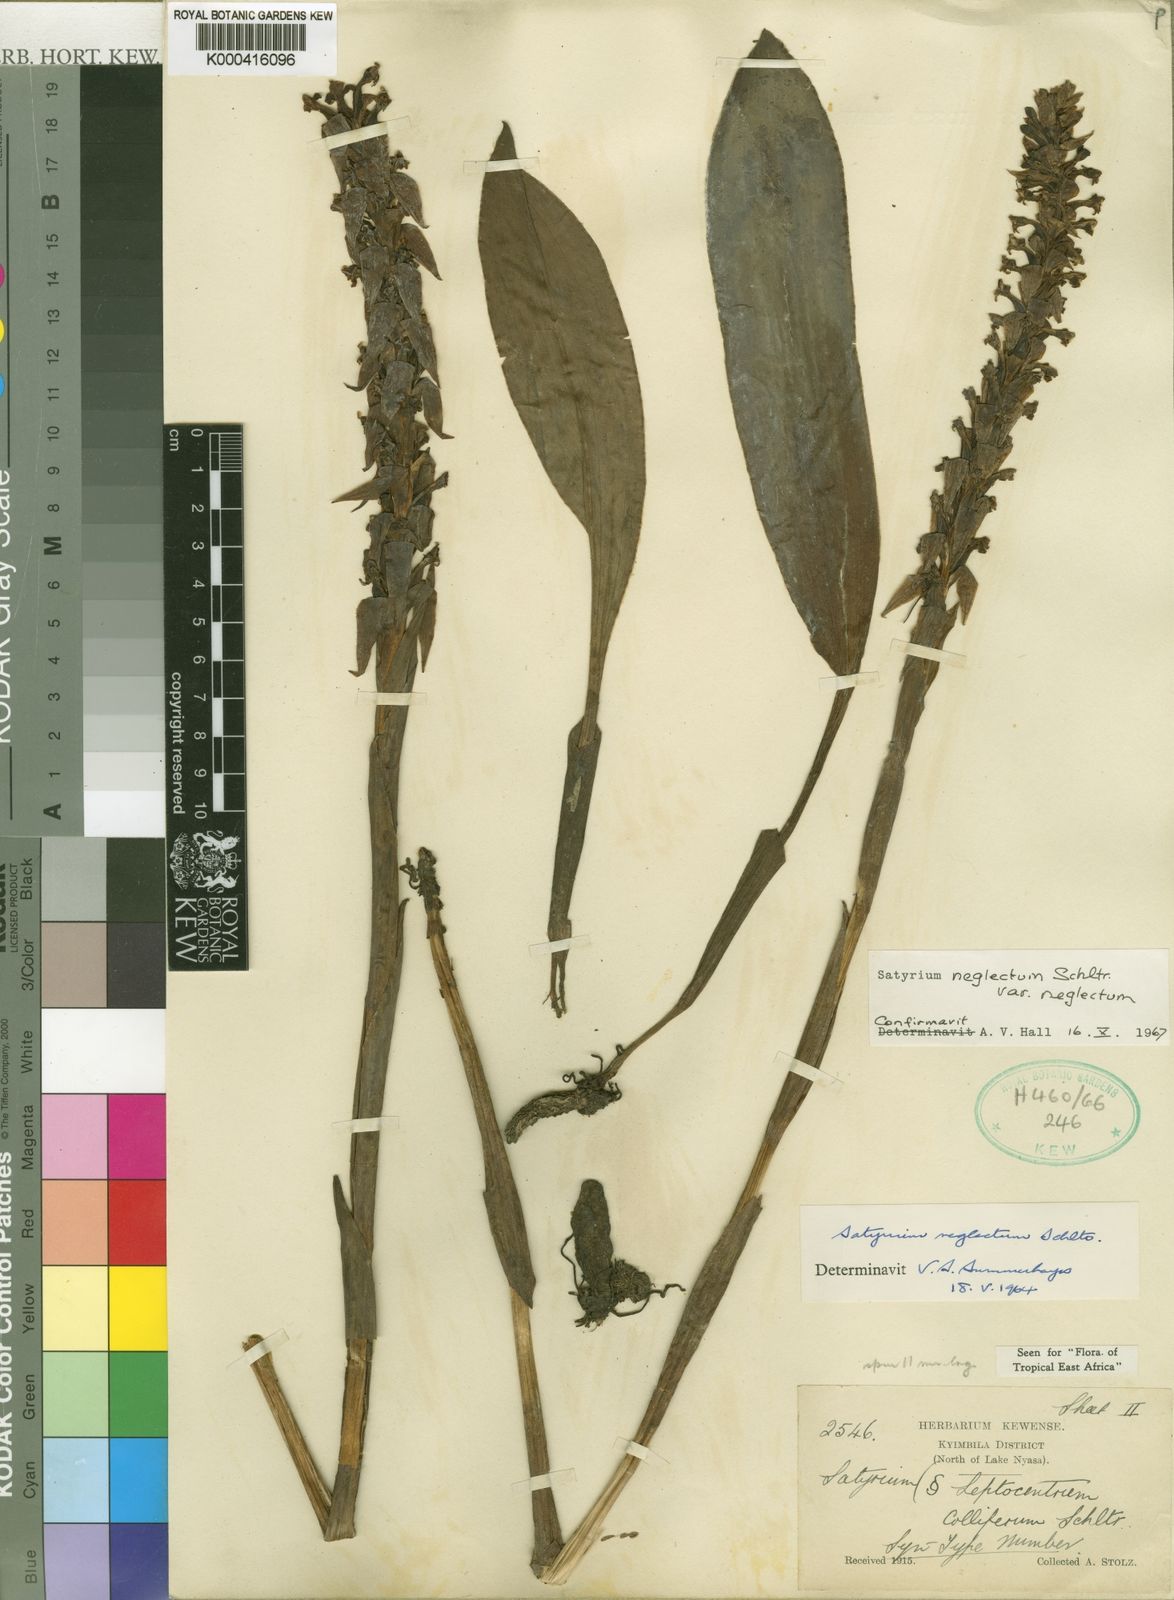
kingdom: Plantae
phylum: Tracheophyta
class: Liliopsida
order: Asparagales
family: Orchidaceae
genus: Satyrium
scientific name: Satyrium neglectum
